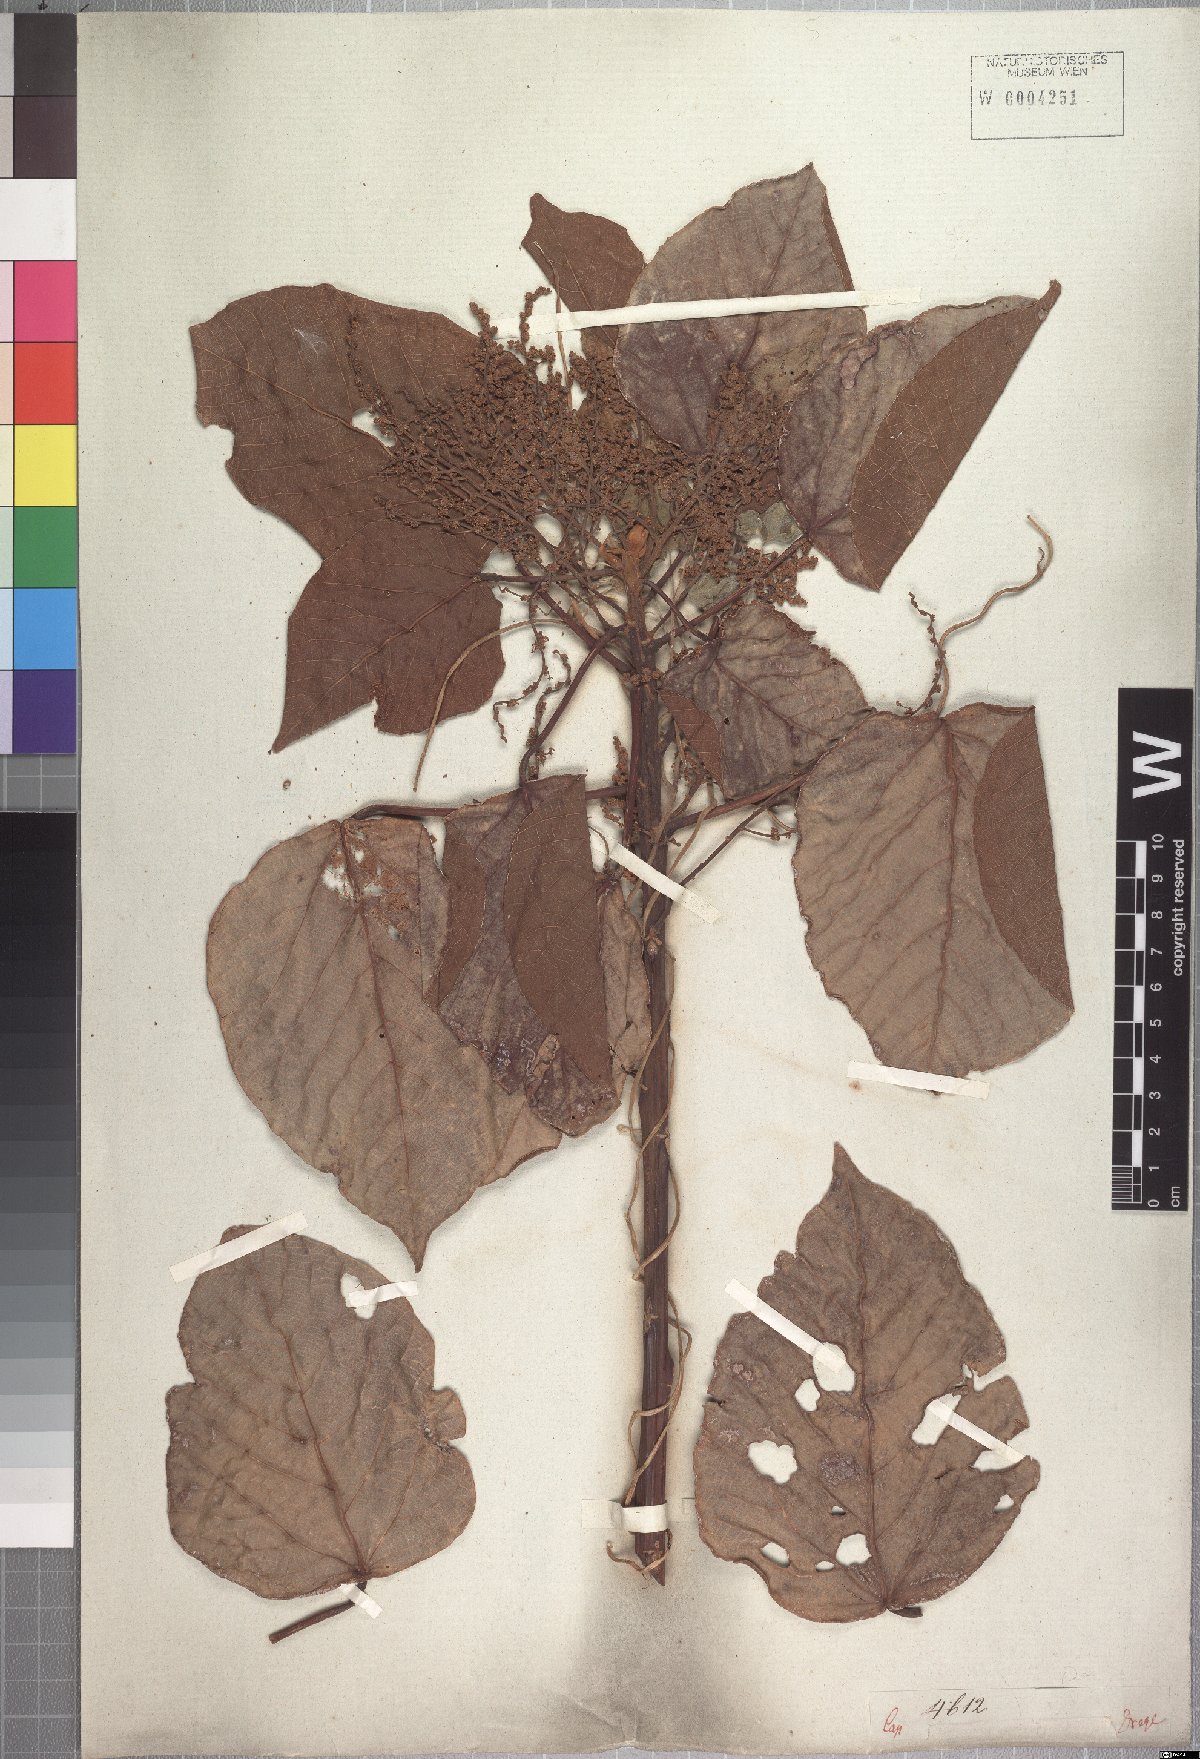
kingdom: Plantae
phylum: Tracheophyta
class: Magnoliopsida
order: Malpighiales
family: Euphorbiaceae
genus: Macaranga
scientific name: Macaranga capensis
